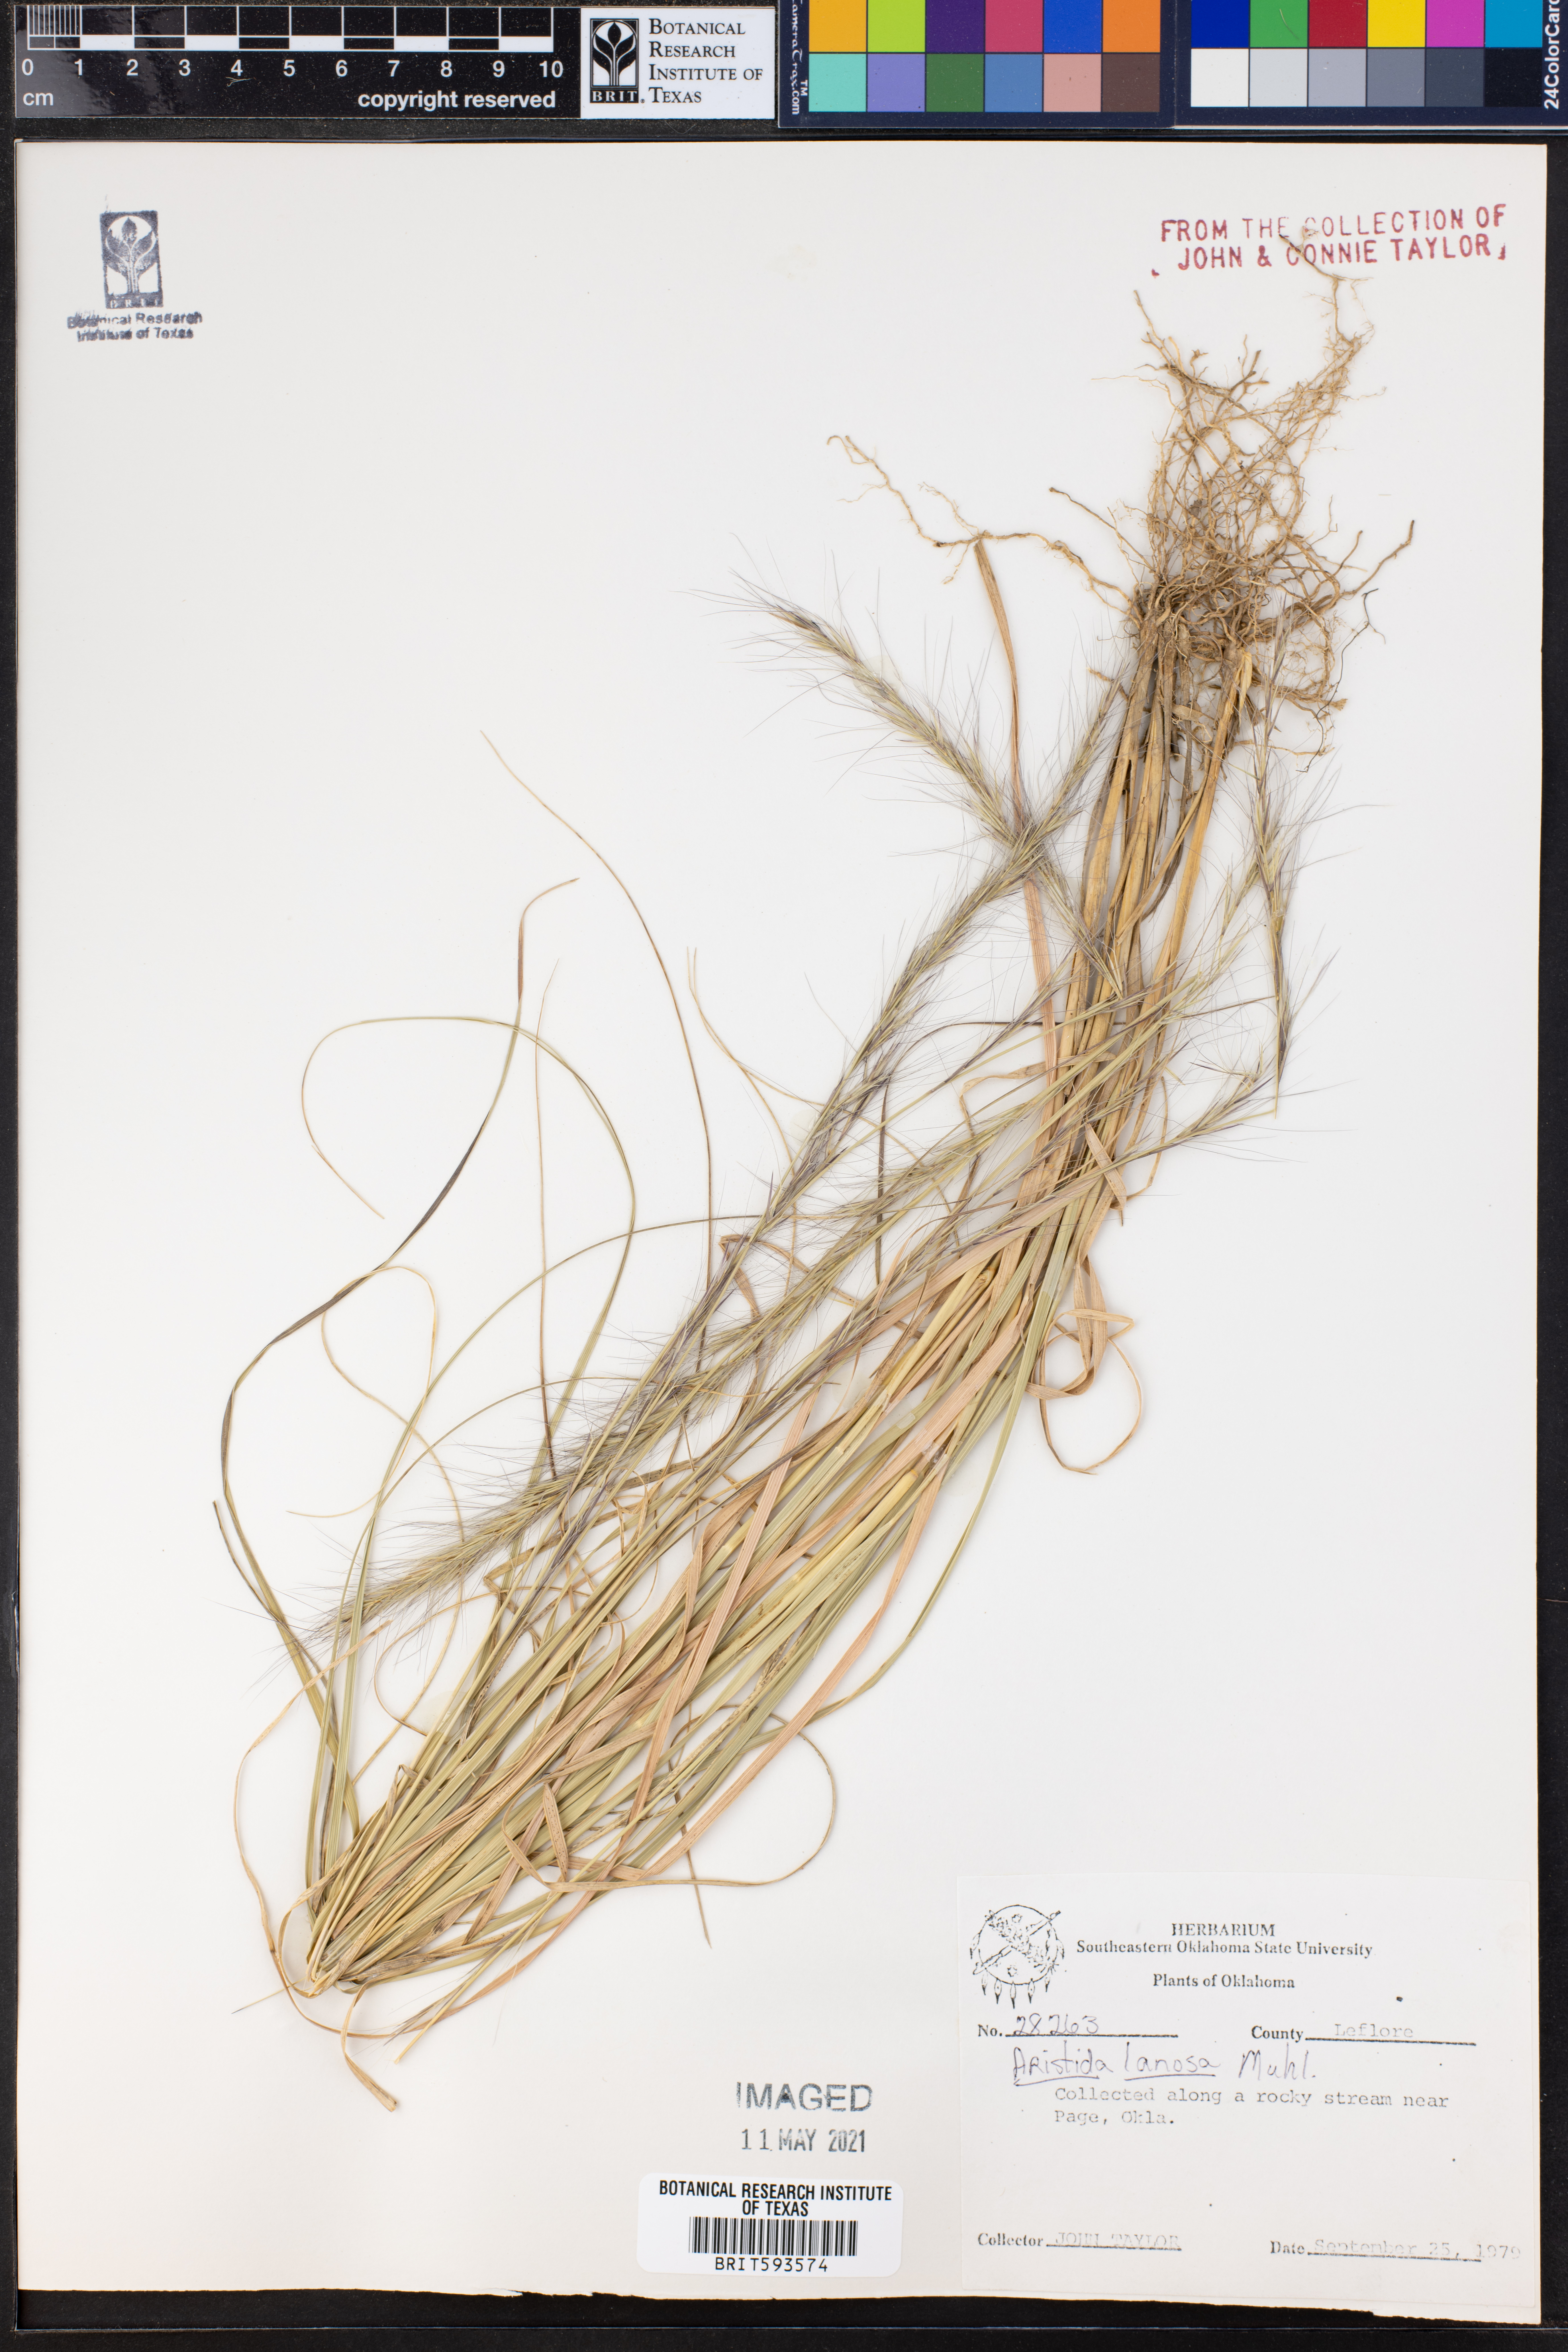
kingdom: Plantae
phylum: Tracheophyta
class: Liliopsida
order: Poales
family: Poaceae
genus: Aristida
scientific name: Aristida lanosa
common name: Woolly three-awn
